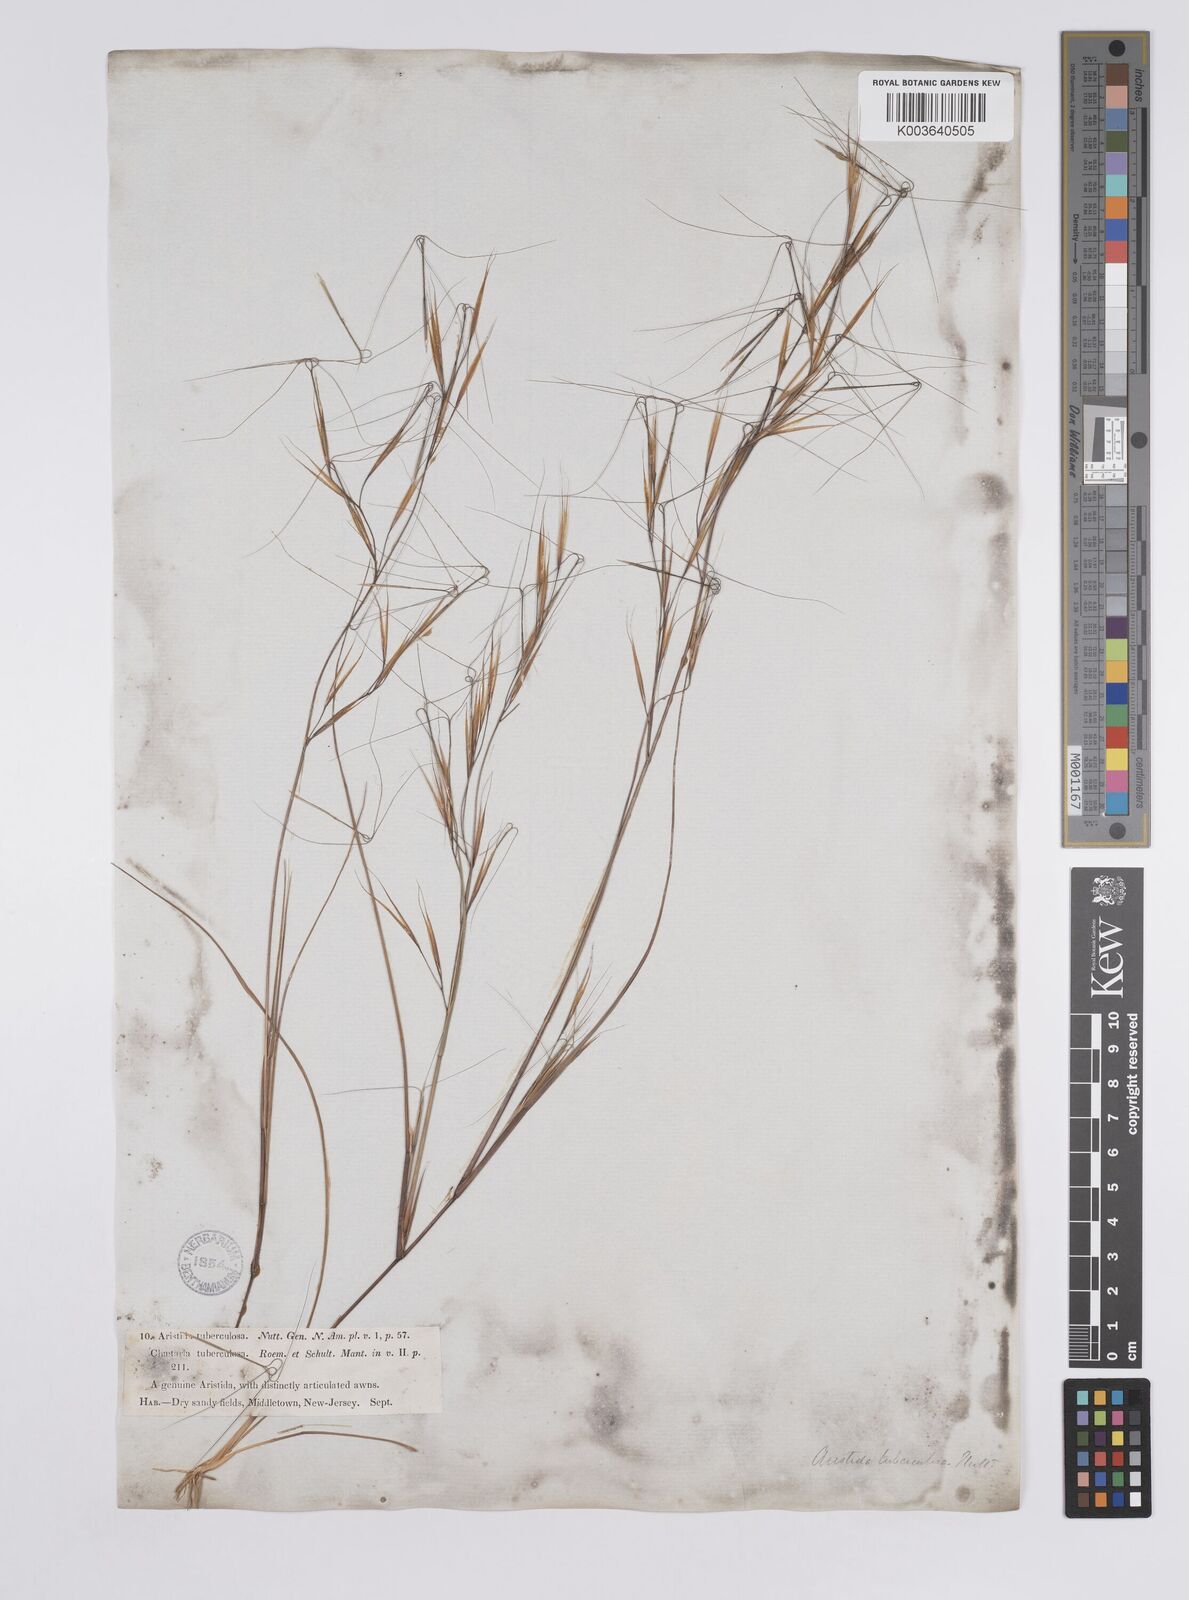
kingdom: Plantae
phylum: Tracheophyta
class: Liliopsida
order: Poales
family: Poaceae
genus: Aristida
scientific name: Aristida tuberculosa
